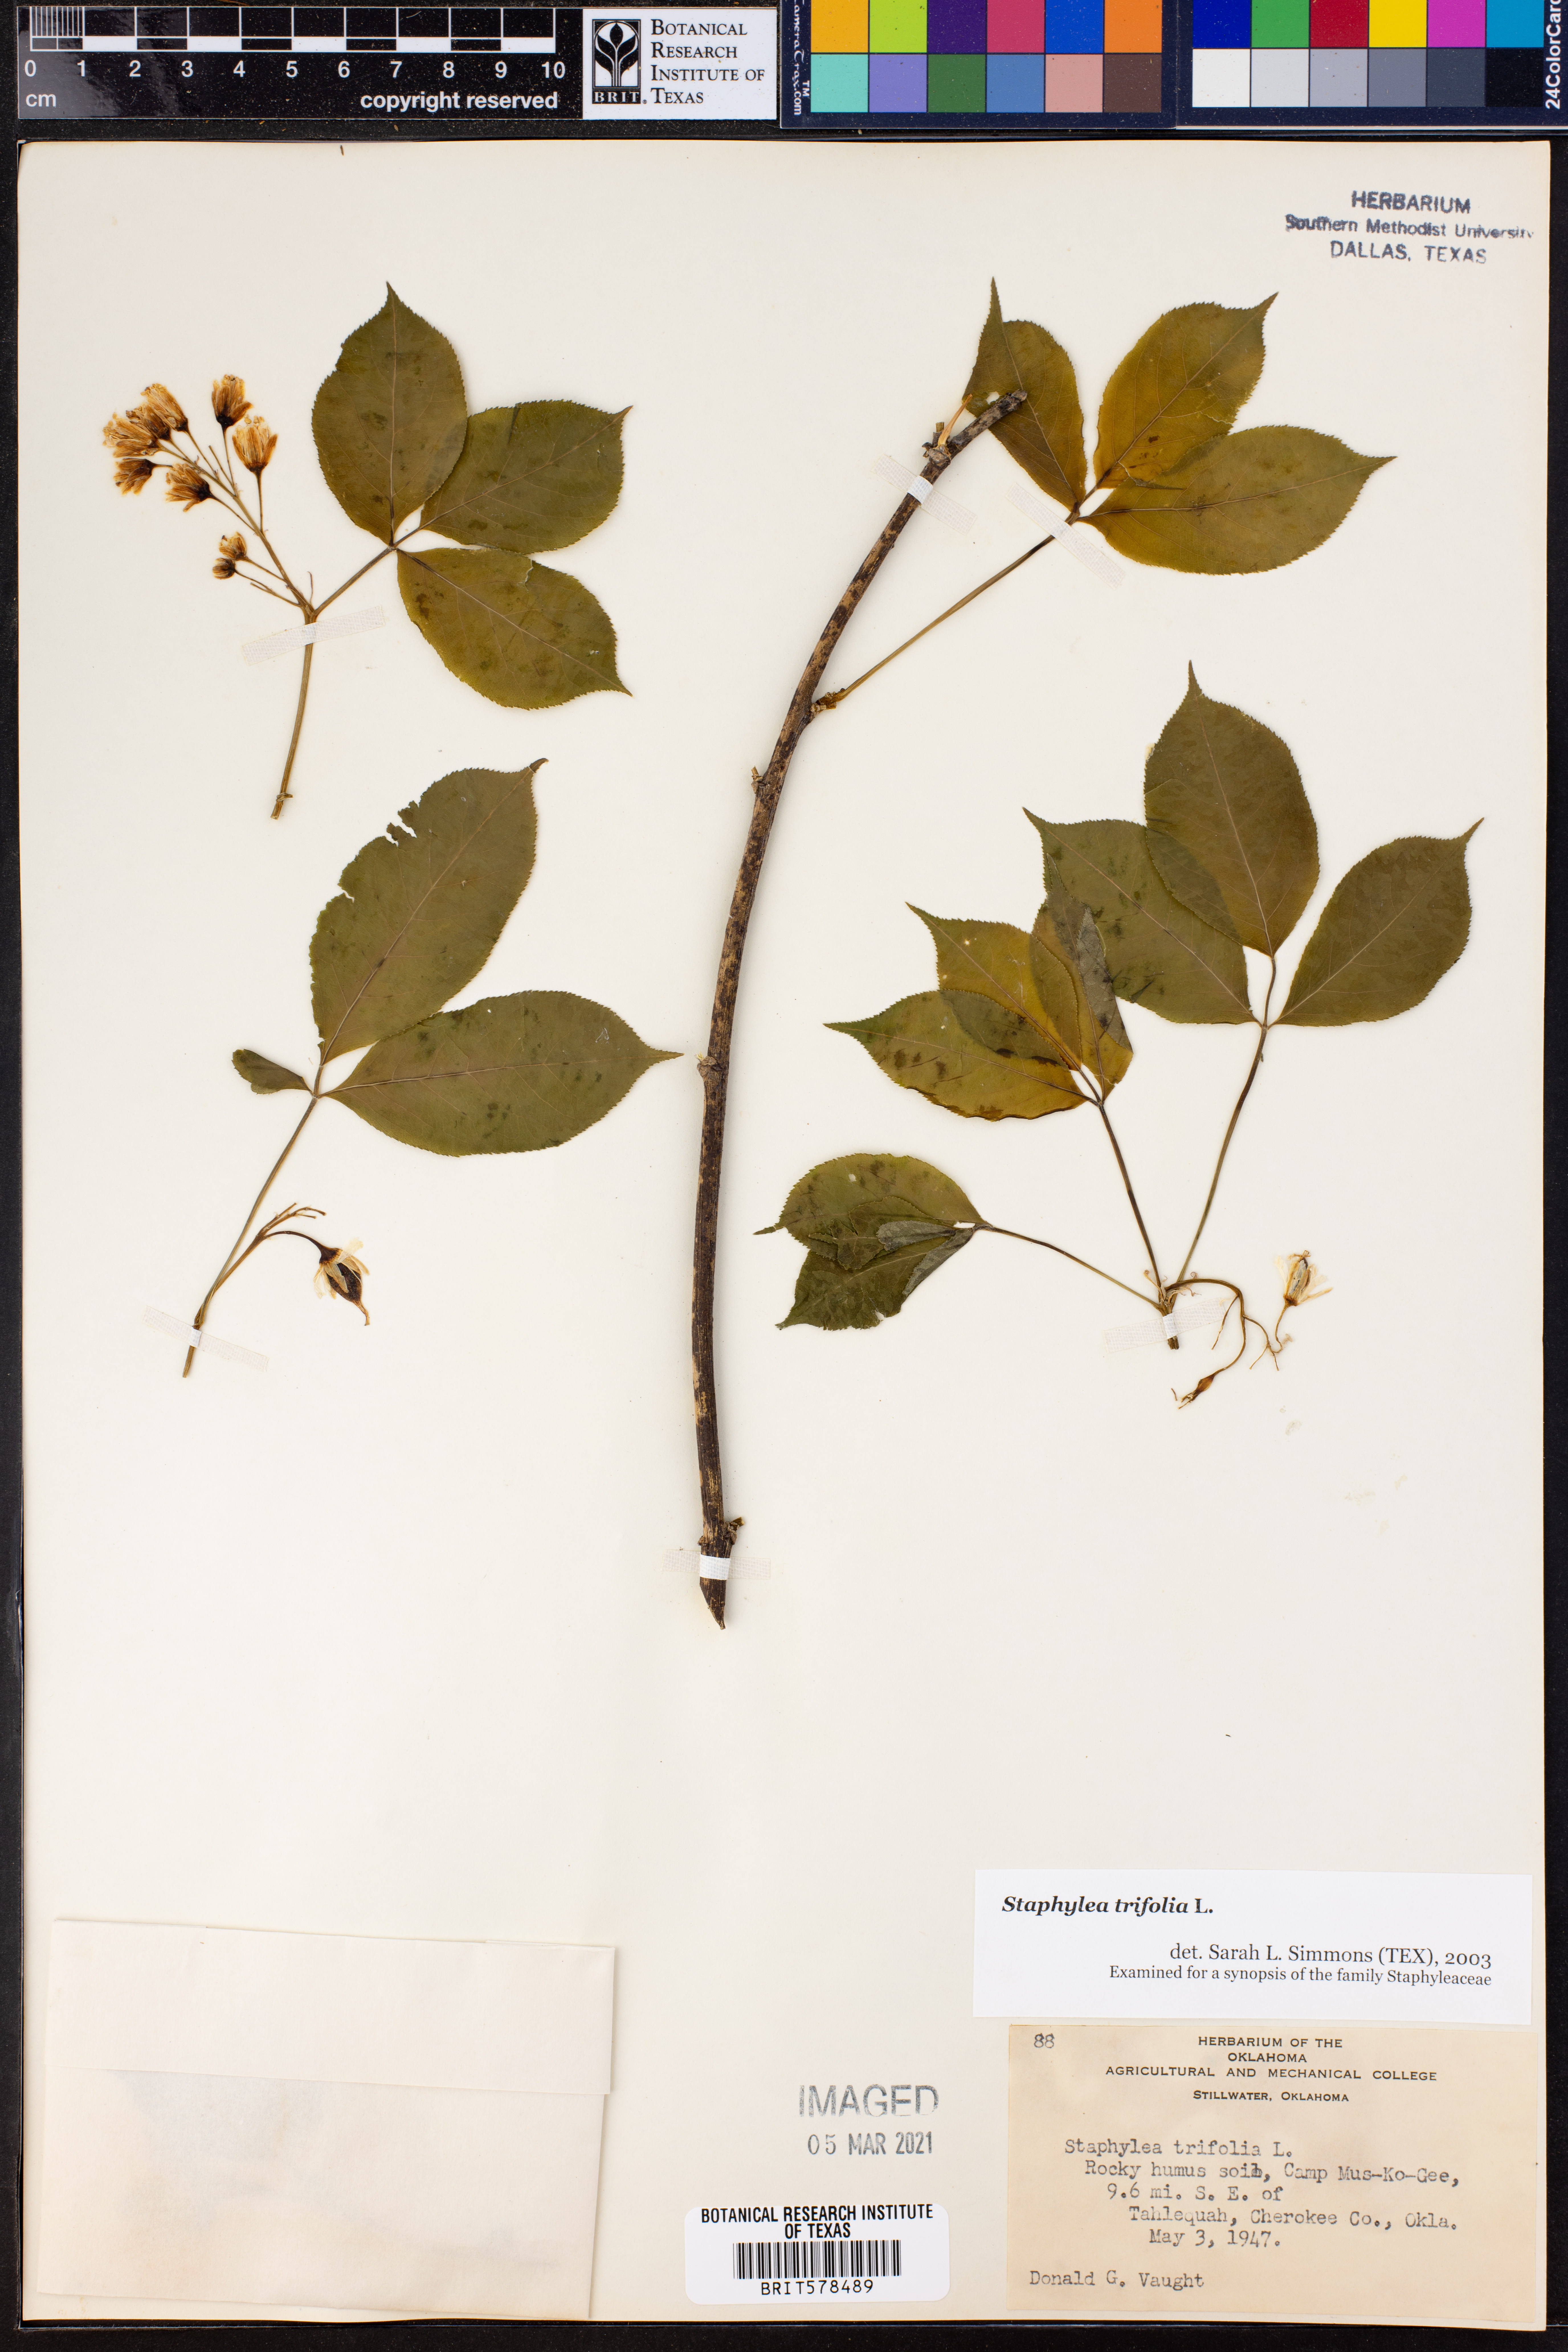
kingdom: Plantae
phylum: Tracheophyta
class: Magnoliopsida
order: Crossosomatales
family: Staphyleaceae
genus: Staphylea
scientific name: Staphylea trifolia
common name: American bladdernut
